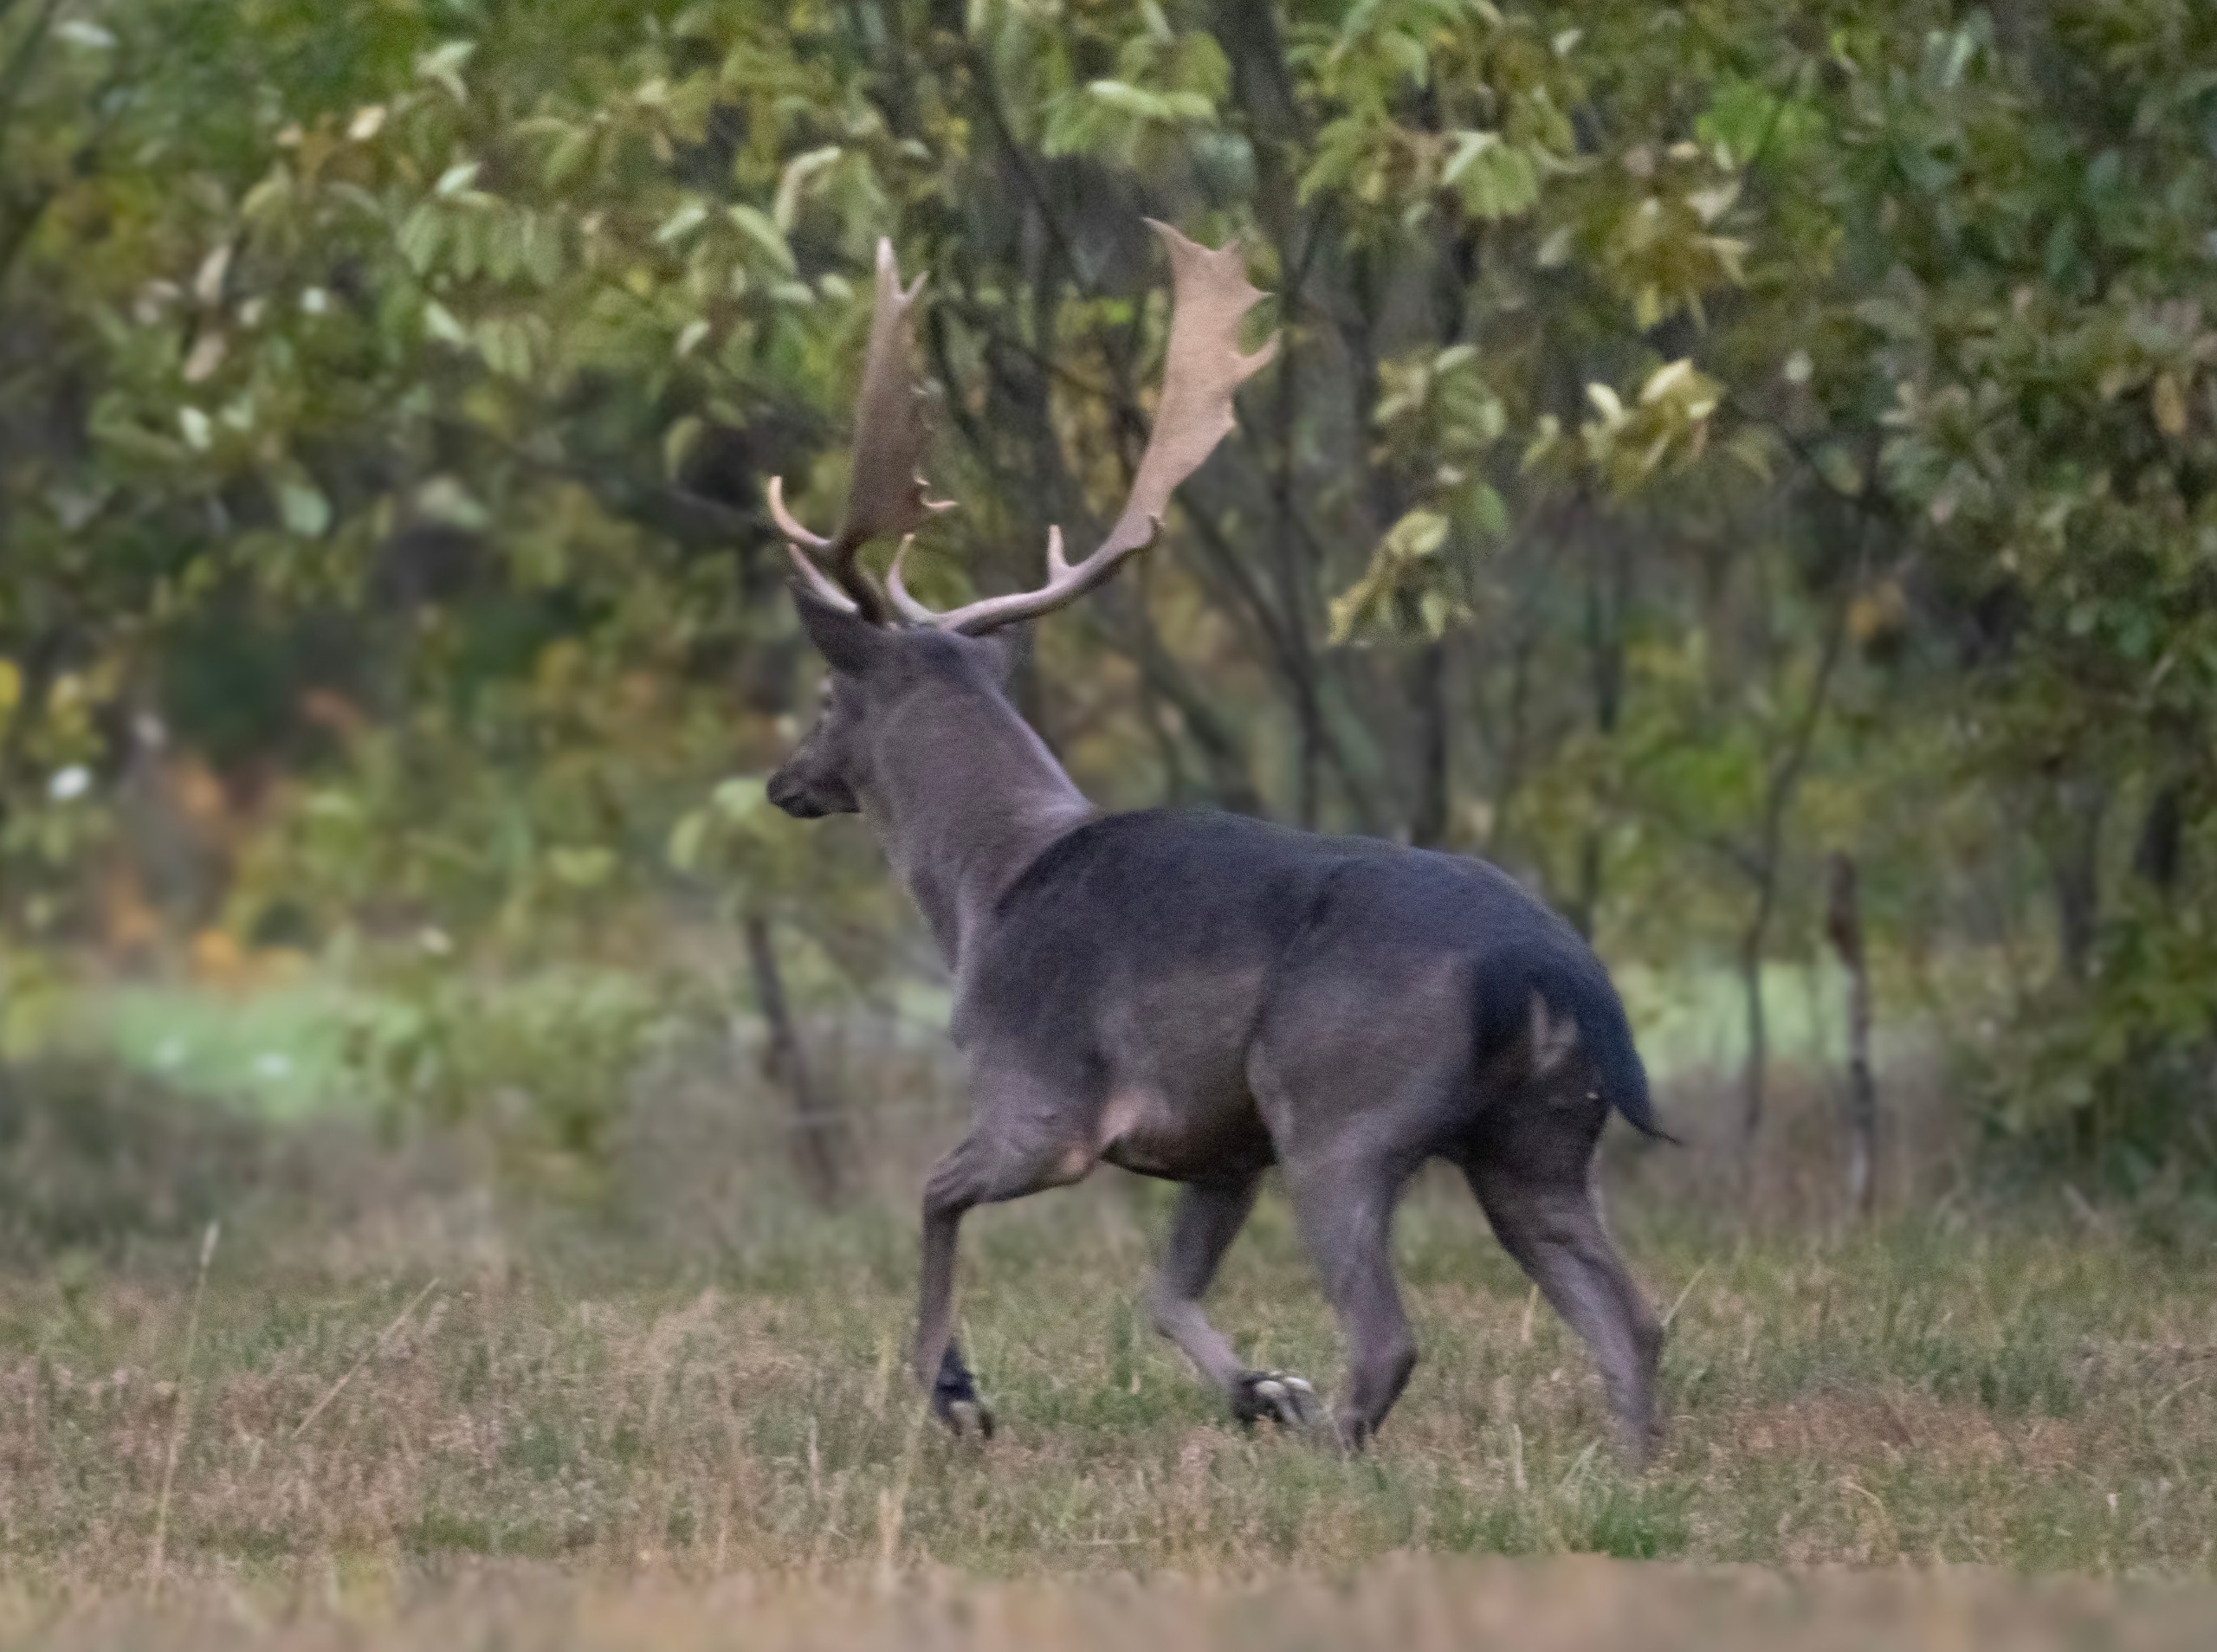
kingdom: Animalia
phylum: Chordata
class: Mammalia
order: Artiodactyla
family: Cervidae
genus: Dama
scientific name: Dama dama
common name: Dådyr
